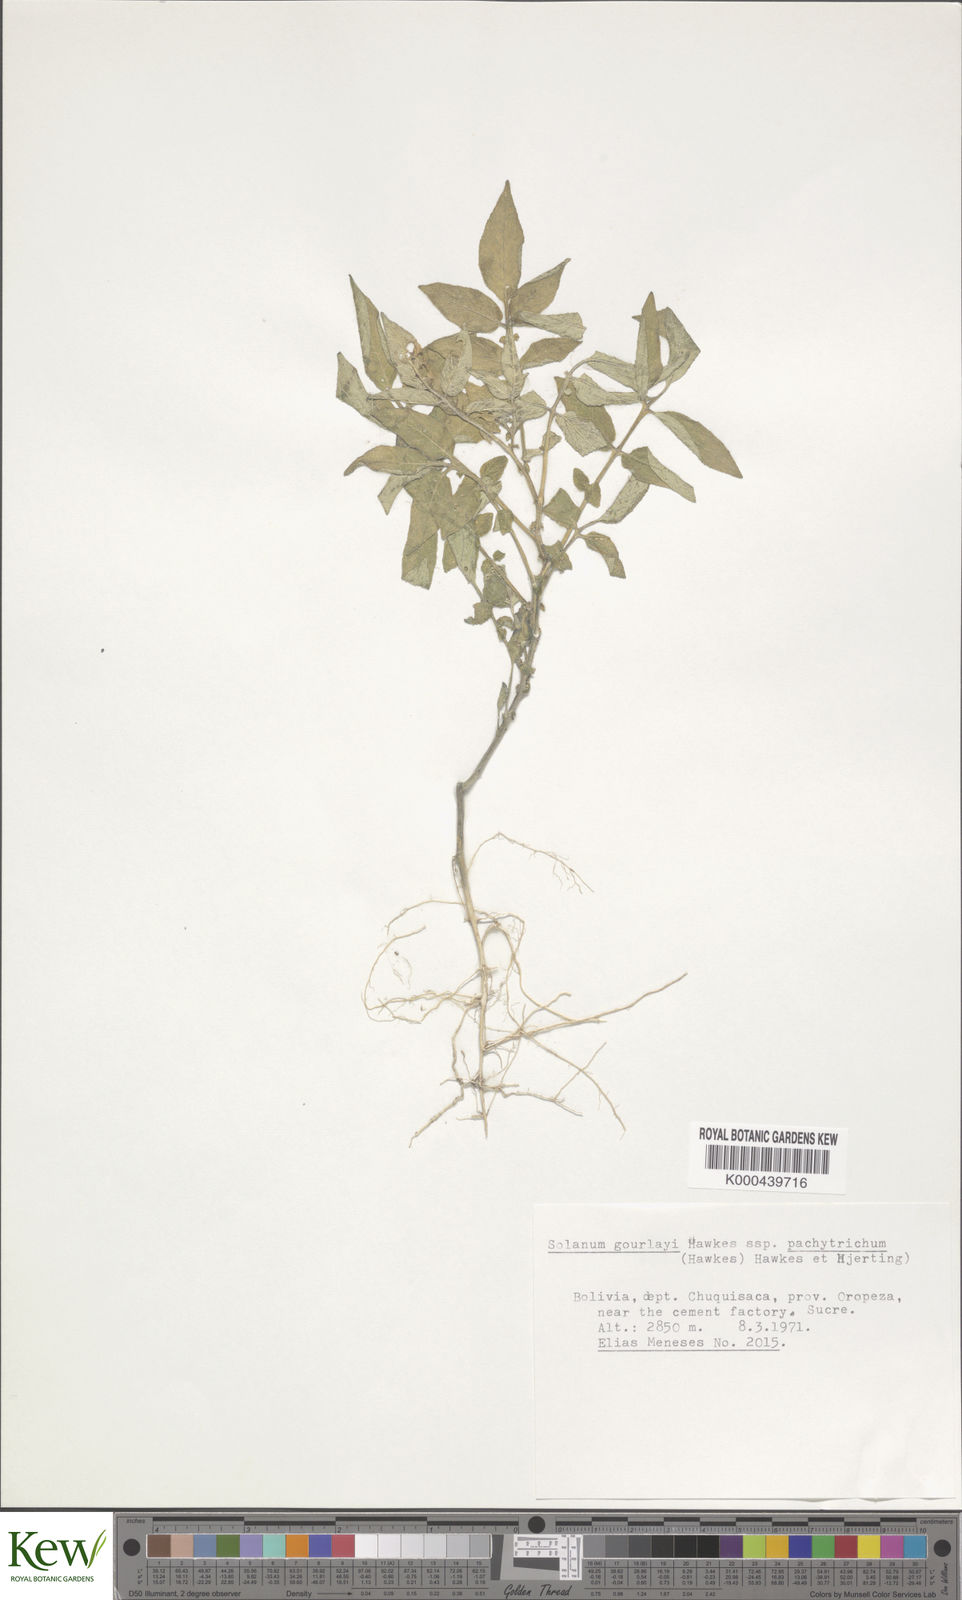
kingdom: Plantae
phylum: Tracheophyta
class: Magnoliopsida
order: Solanales
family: Solanaceae
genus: Solanum
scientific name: Solanum brevicaule
